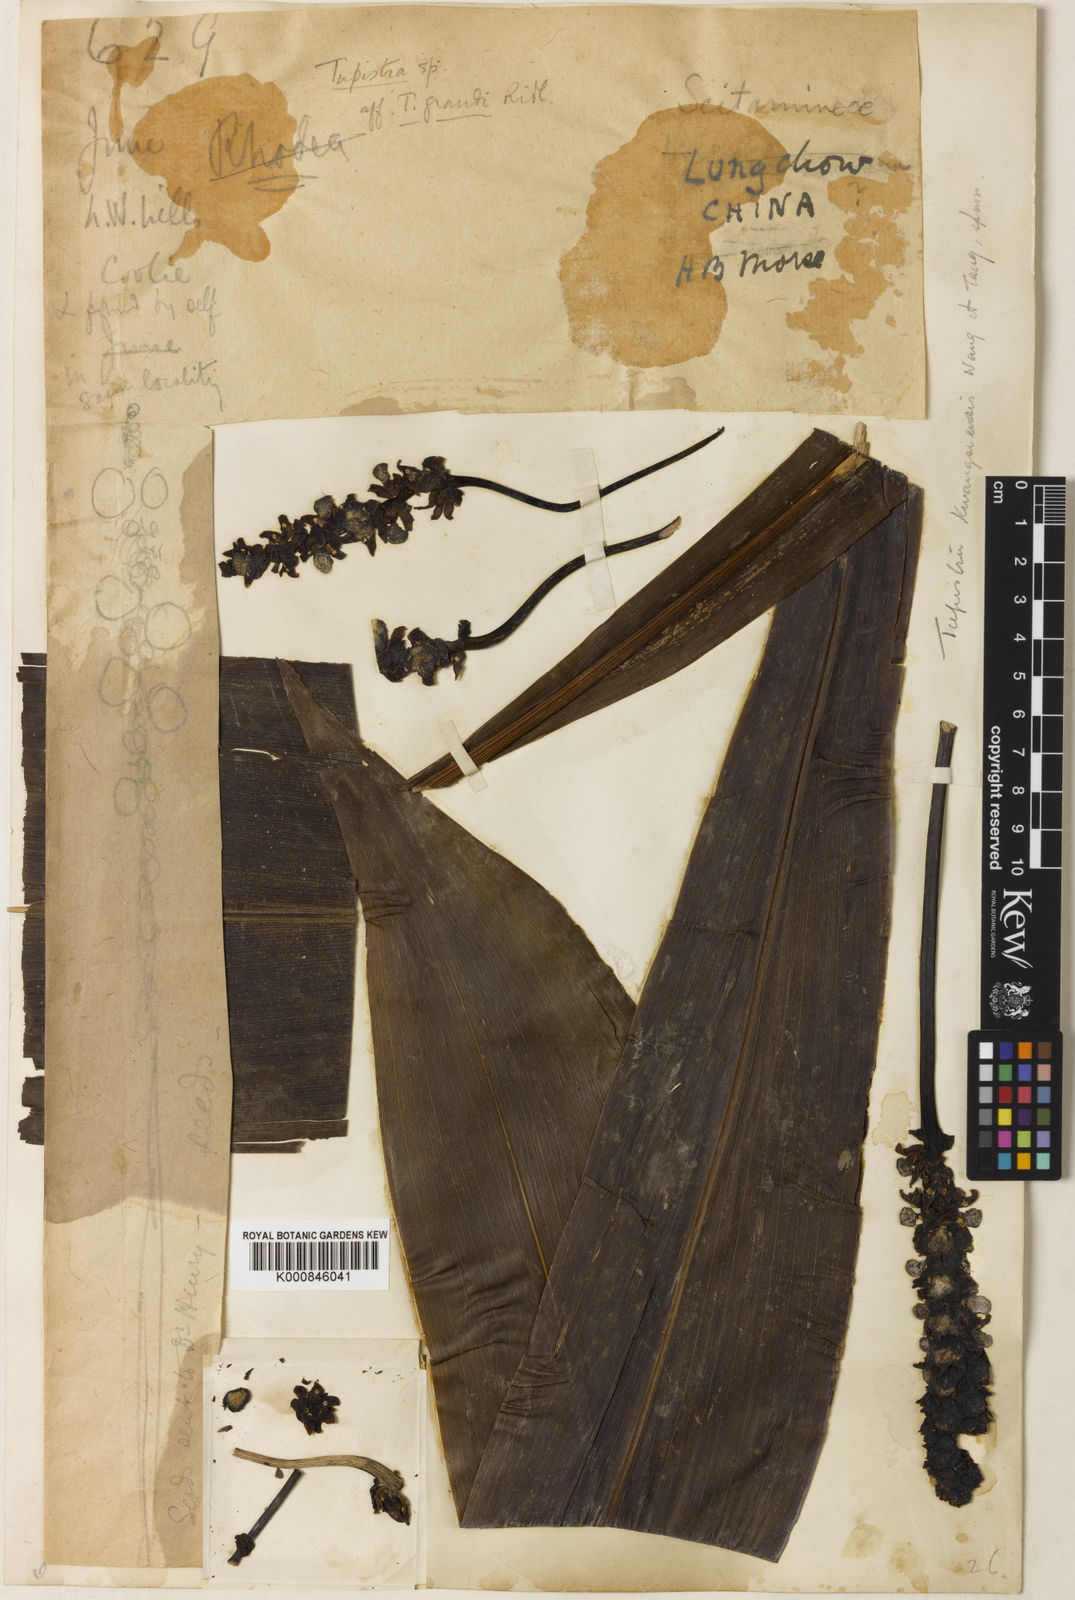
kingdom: Plantae
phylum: Tracheophyta
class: Liliopsida
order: Asparagales
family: Asparagaceae
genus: Tupistra
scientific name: Tupistra
